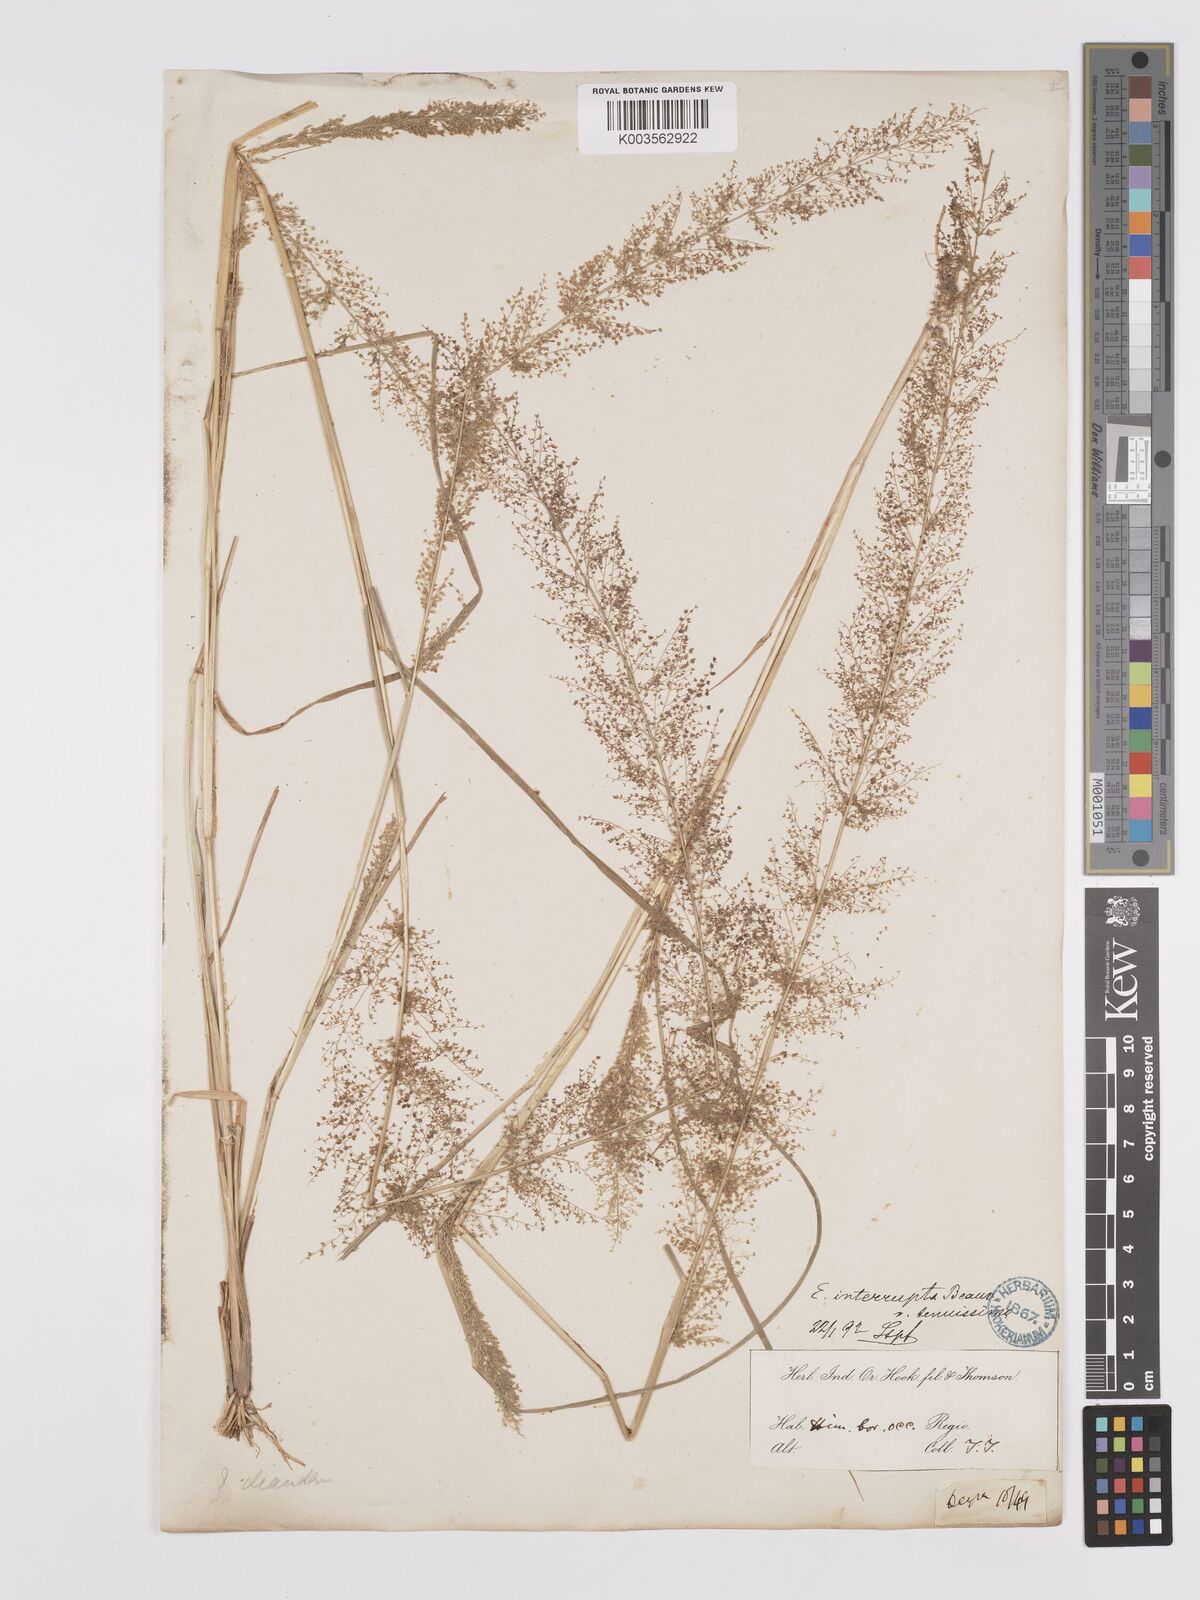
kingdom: Plantae
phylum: Tracheophyta
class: Liliopsida
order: Poales
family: Poaceae
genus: Eragrostis
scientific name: Eragrostis japonica
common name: Pond lovegrass
